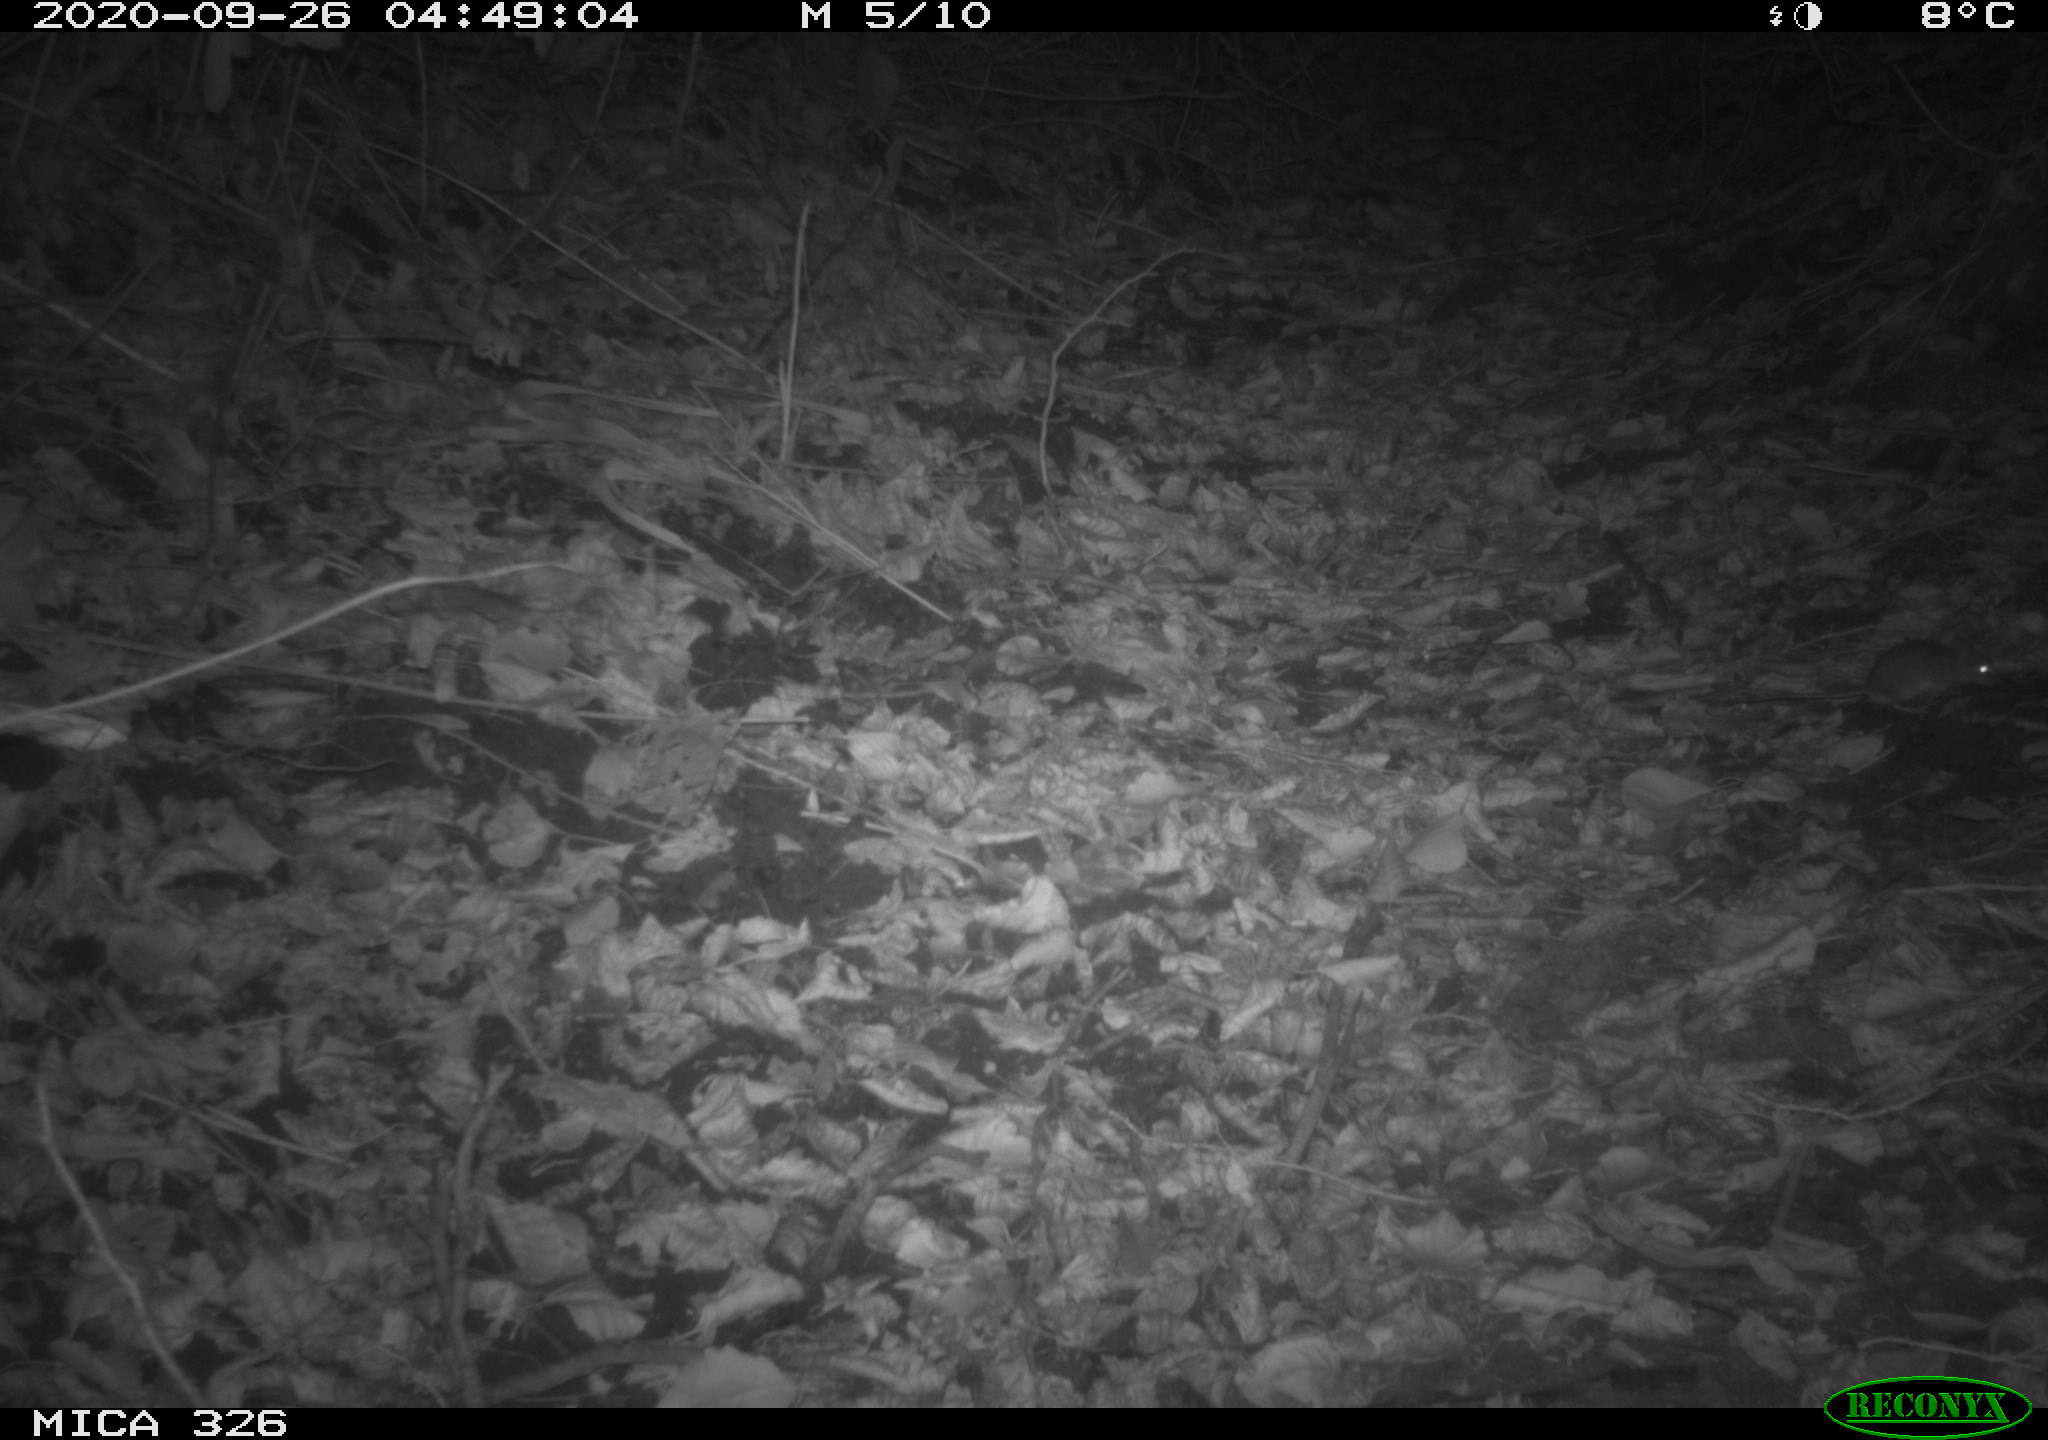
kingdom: Animalia
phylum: Chordata
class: Mammalia
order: Rodentia
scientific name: Rodentia
